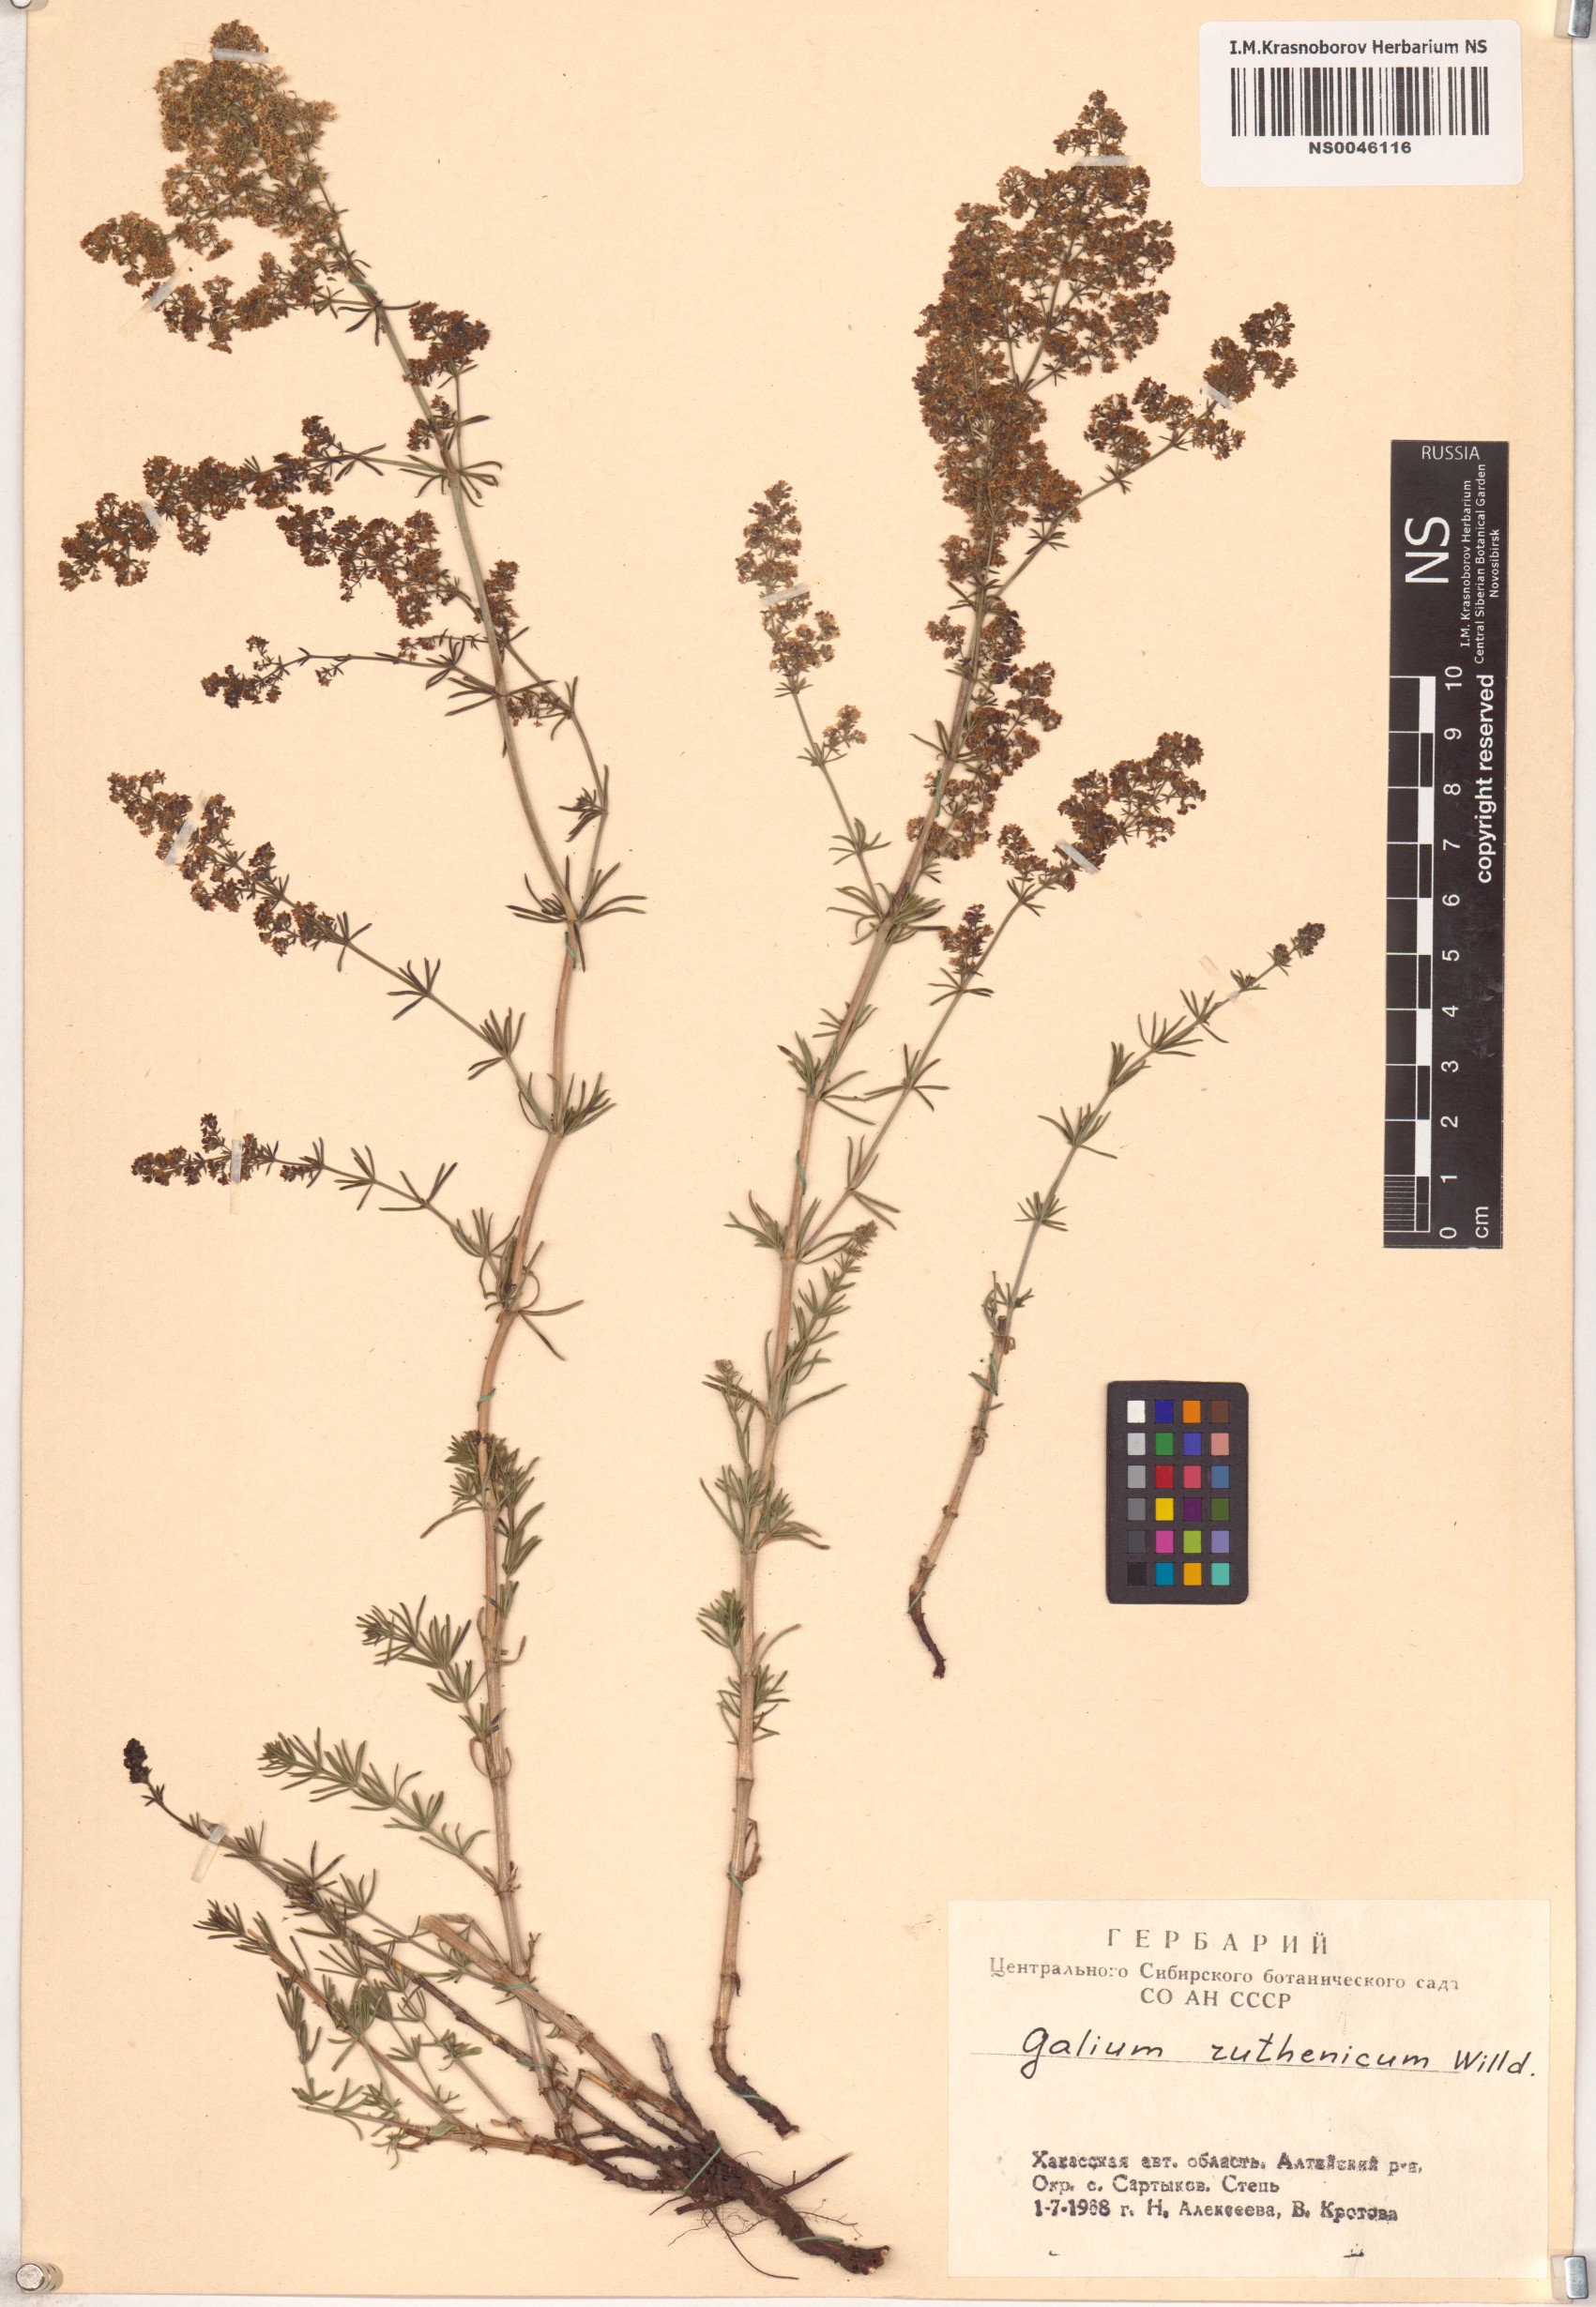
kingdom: Plantae
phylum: Tracheophyta
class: Magnoliopsida
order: Gentianales
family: Rubiaceae
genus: Galium
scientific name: Galium verum
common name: Lady's bedstraw
